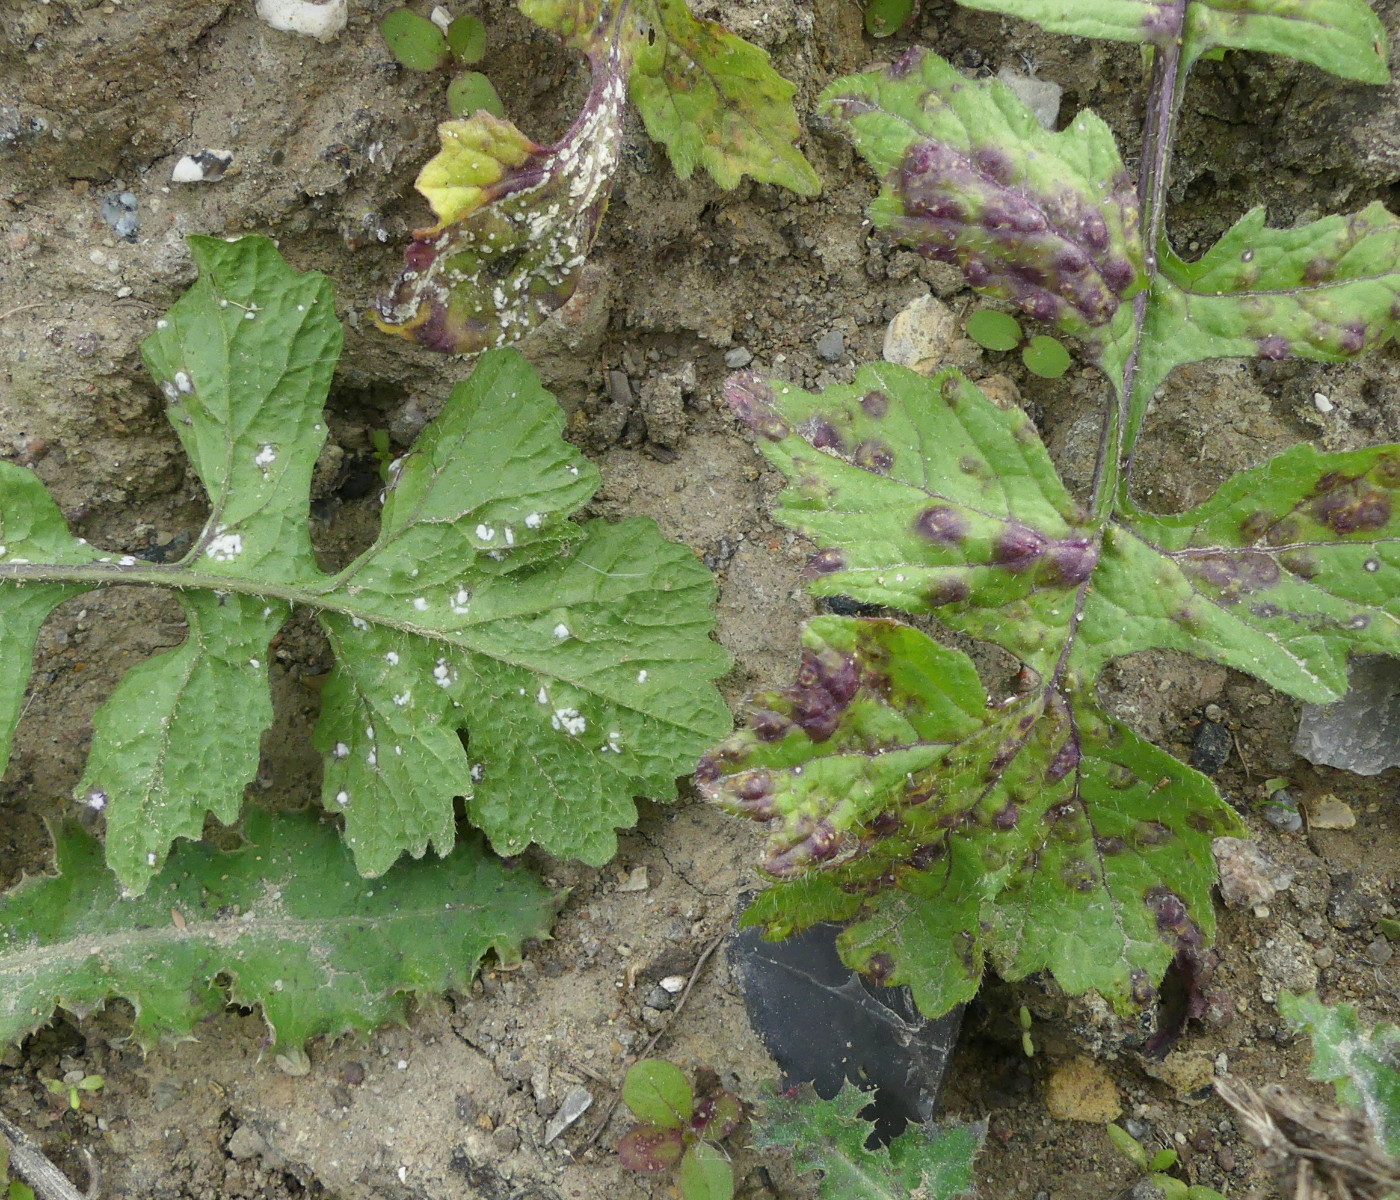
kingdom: Chromista
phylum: Oomycota
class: Peronosporea
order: Albuginales
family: Albuginaceae
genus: Albugo
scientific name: Albugo candida
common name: Crucifer white blister
